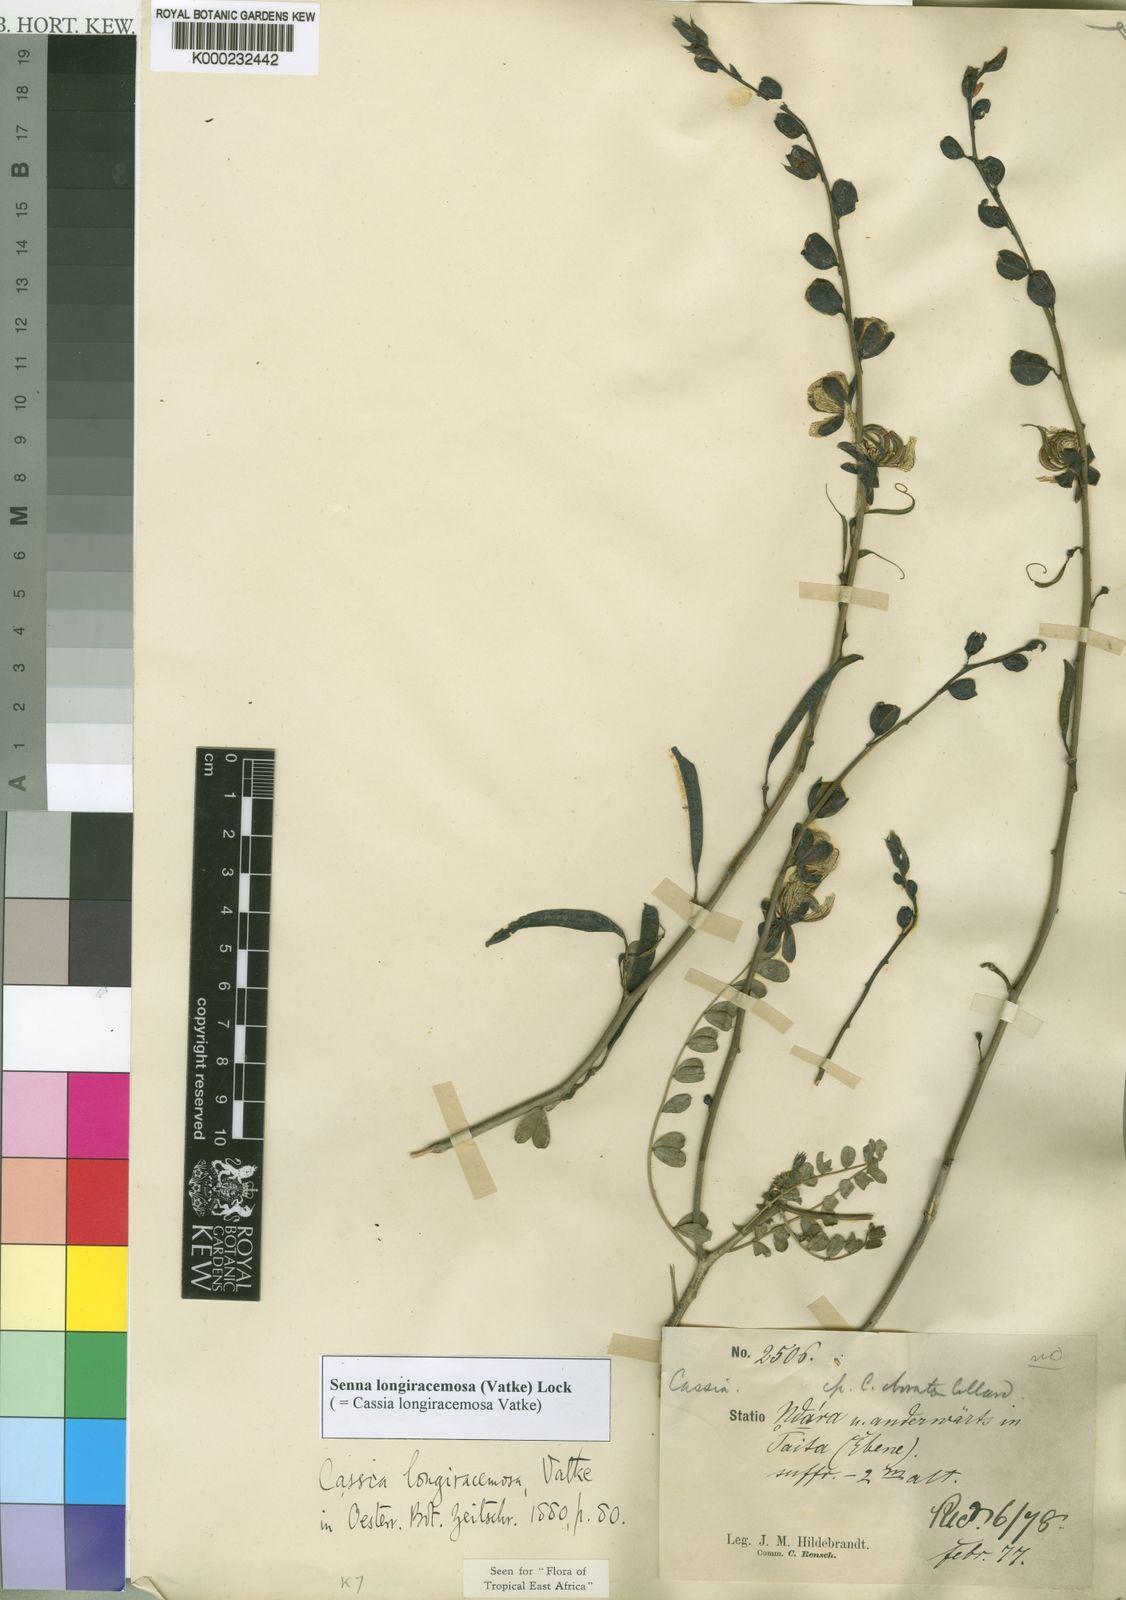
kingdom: Plantae
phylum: Tracheophyta
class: Magnoliopsida
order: Fabales
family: Fabaceae
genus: Senna
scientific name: Senna longiracemosa
